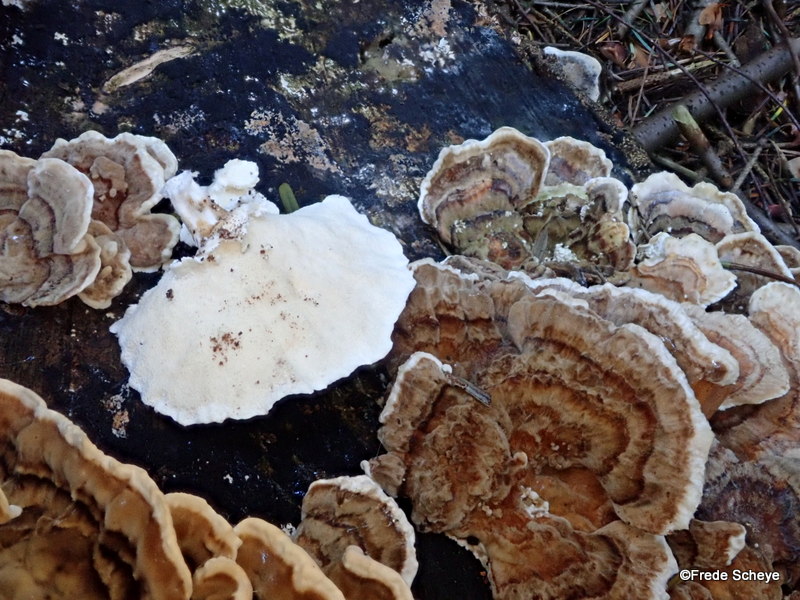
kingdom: Fungi
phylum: Basidiomycota
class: Agaricomycetes
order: Polyporales
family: Polyporaceae
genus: Trametes
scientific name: Trametes ochracea
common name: bæltet læderporesvamp
